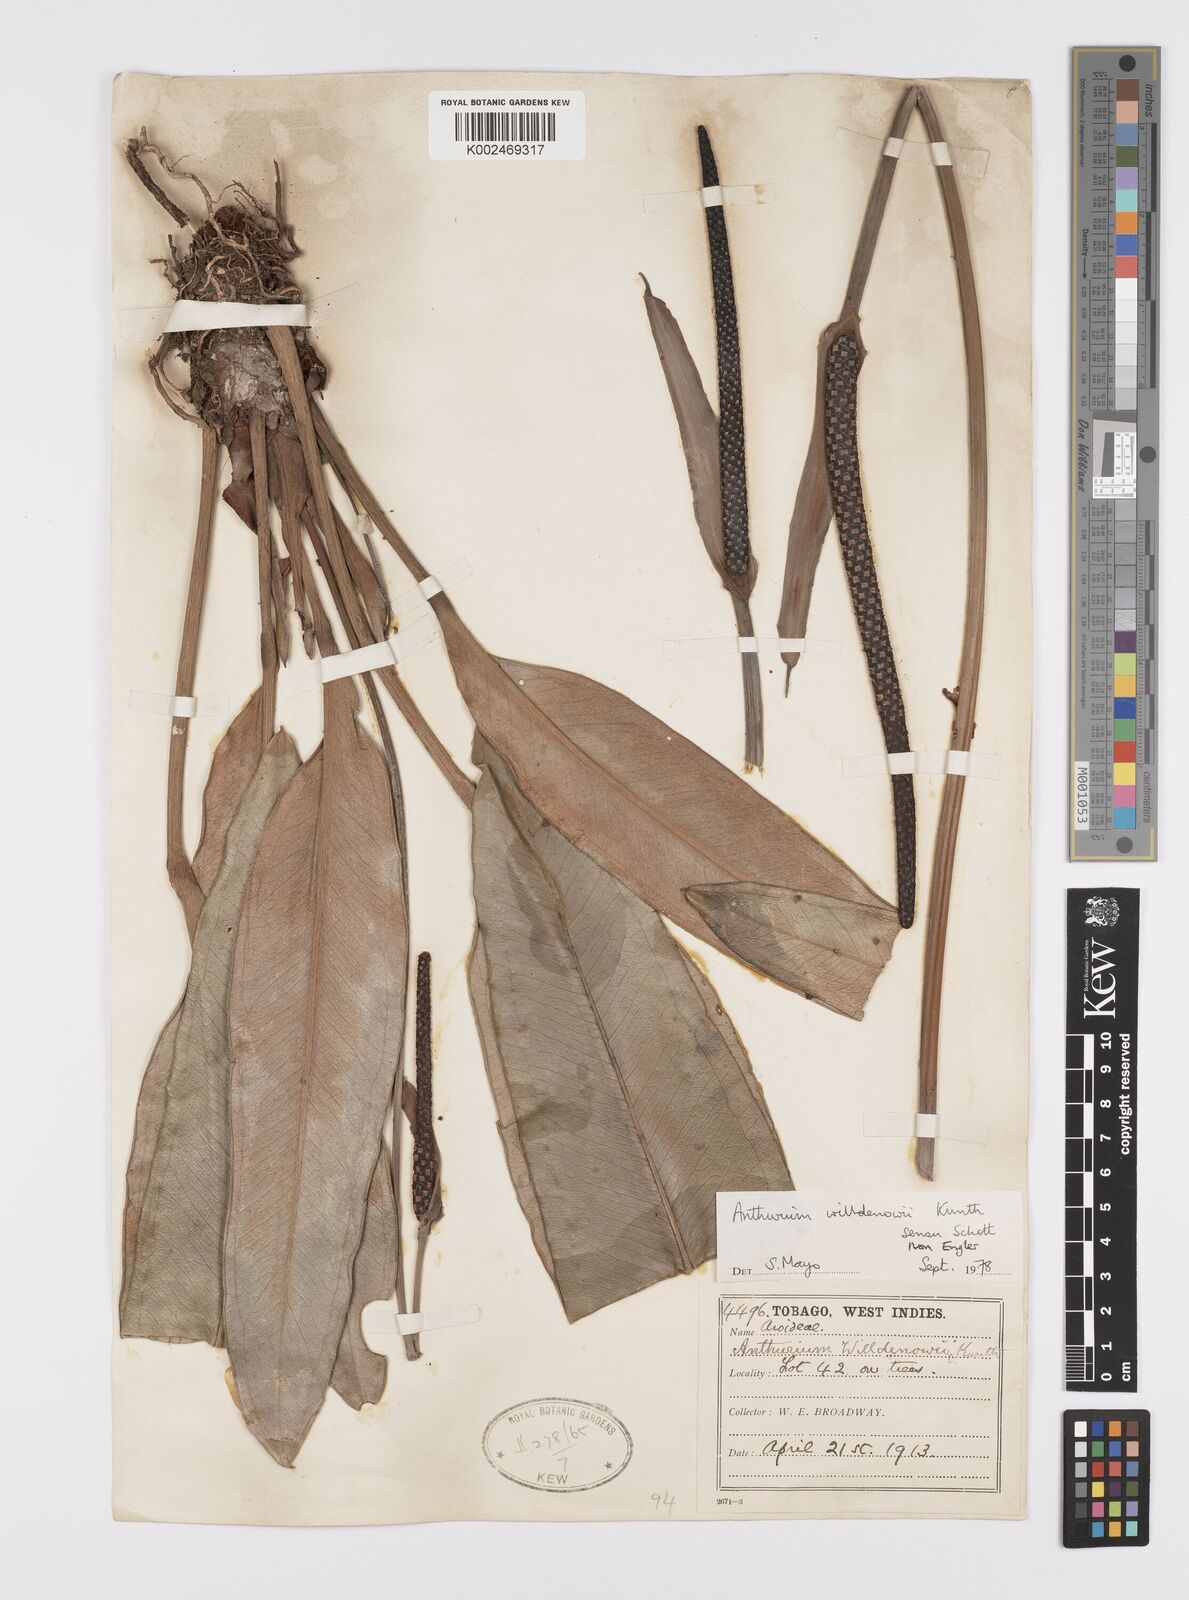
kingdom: Plantae
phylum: Tracheophyta
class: Liliopsida
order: Alismatales
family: Araceae
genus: Anthurium
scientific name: Anthurium willdenowii
